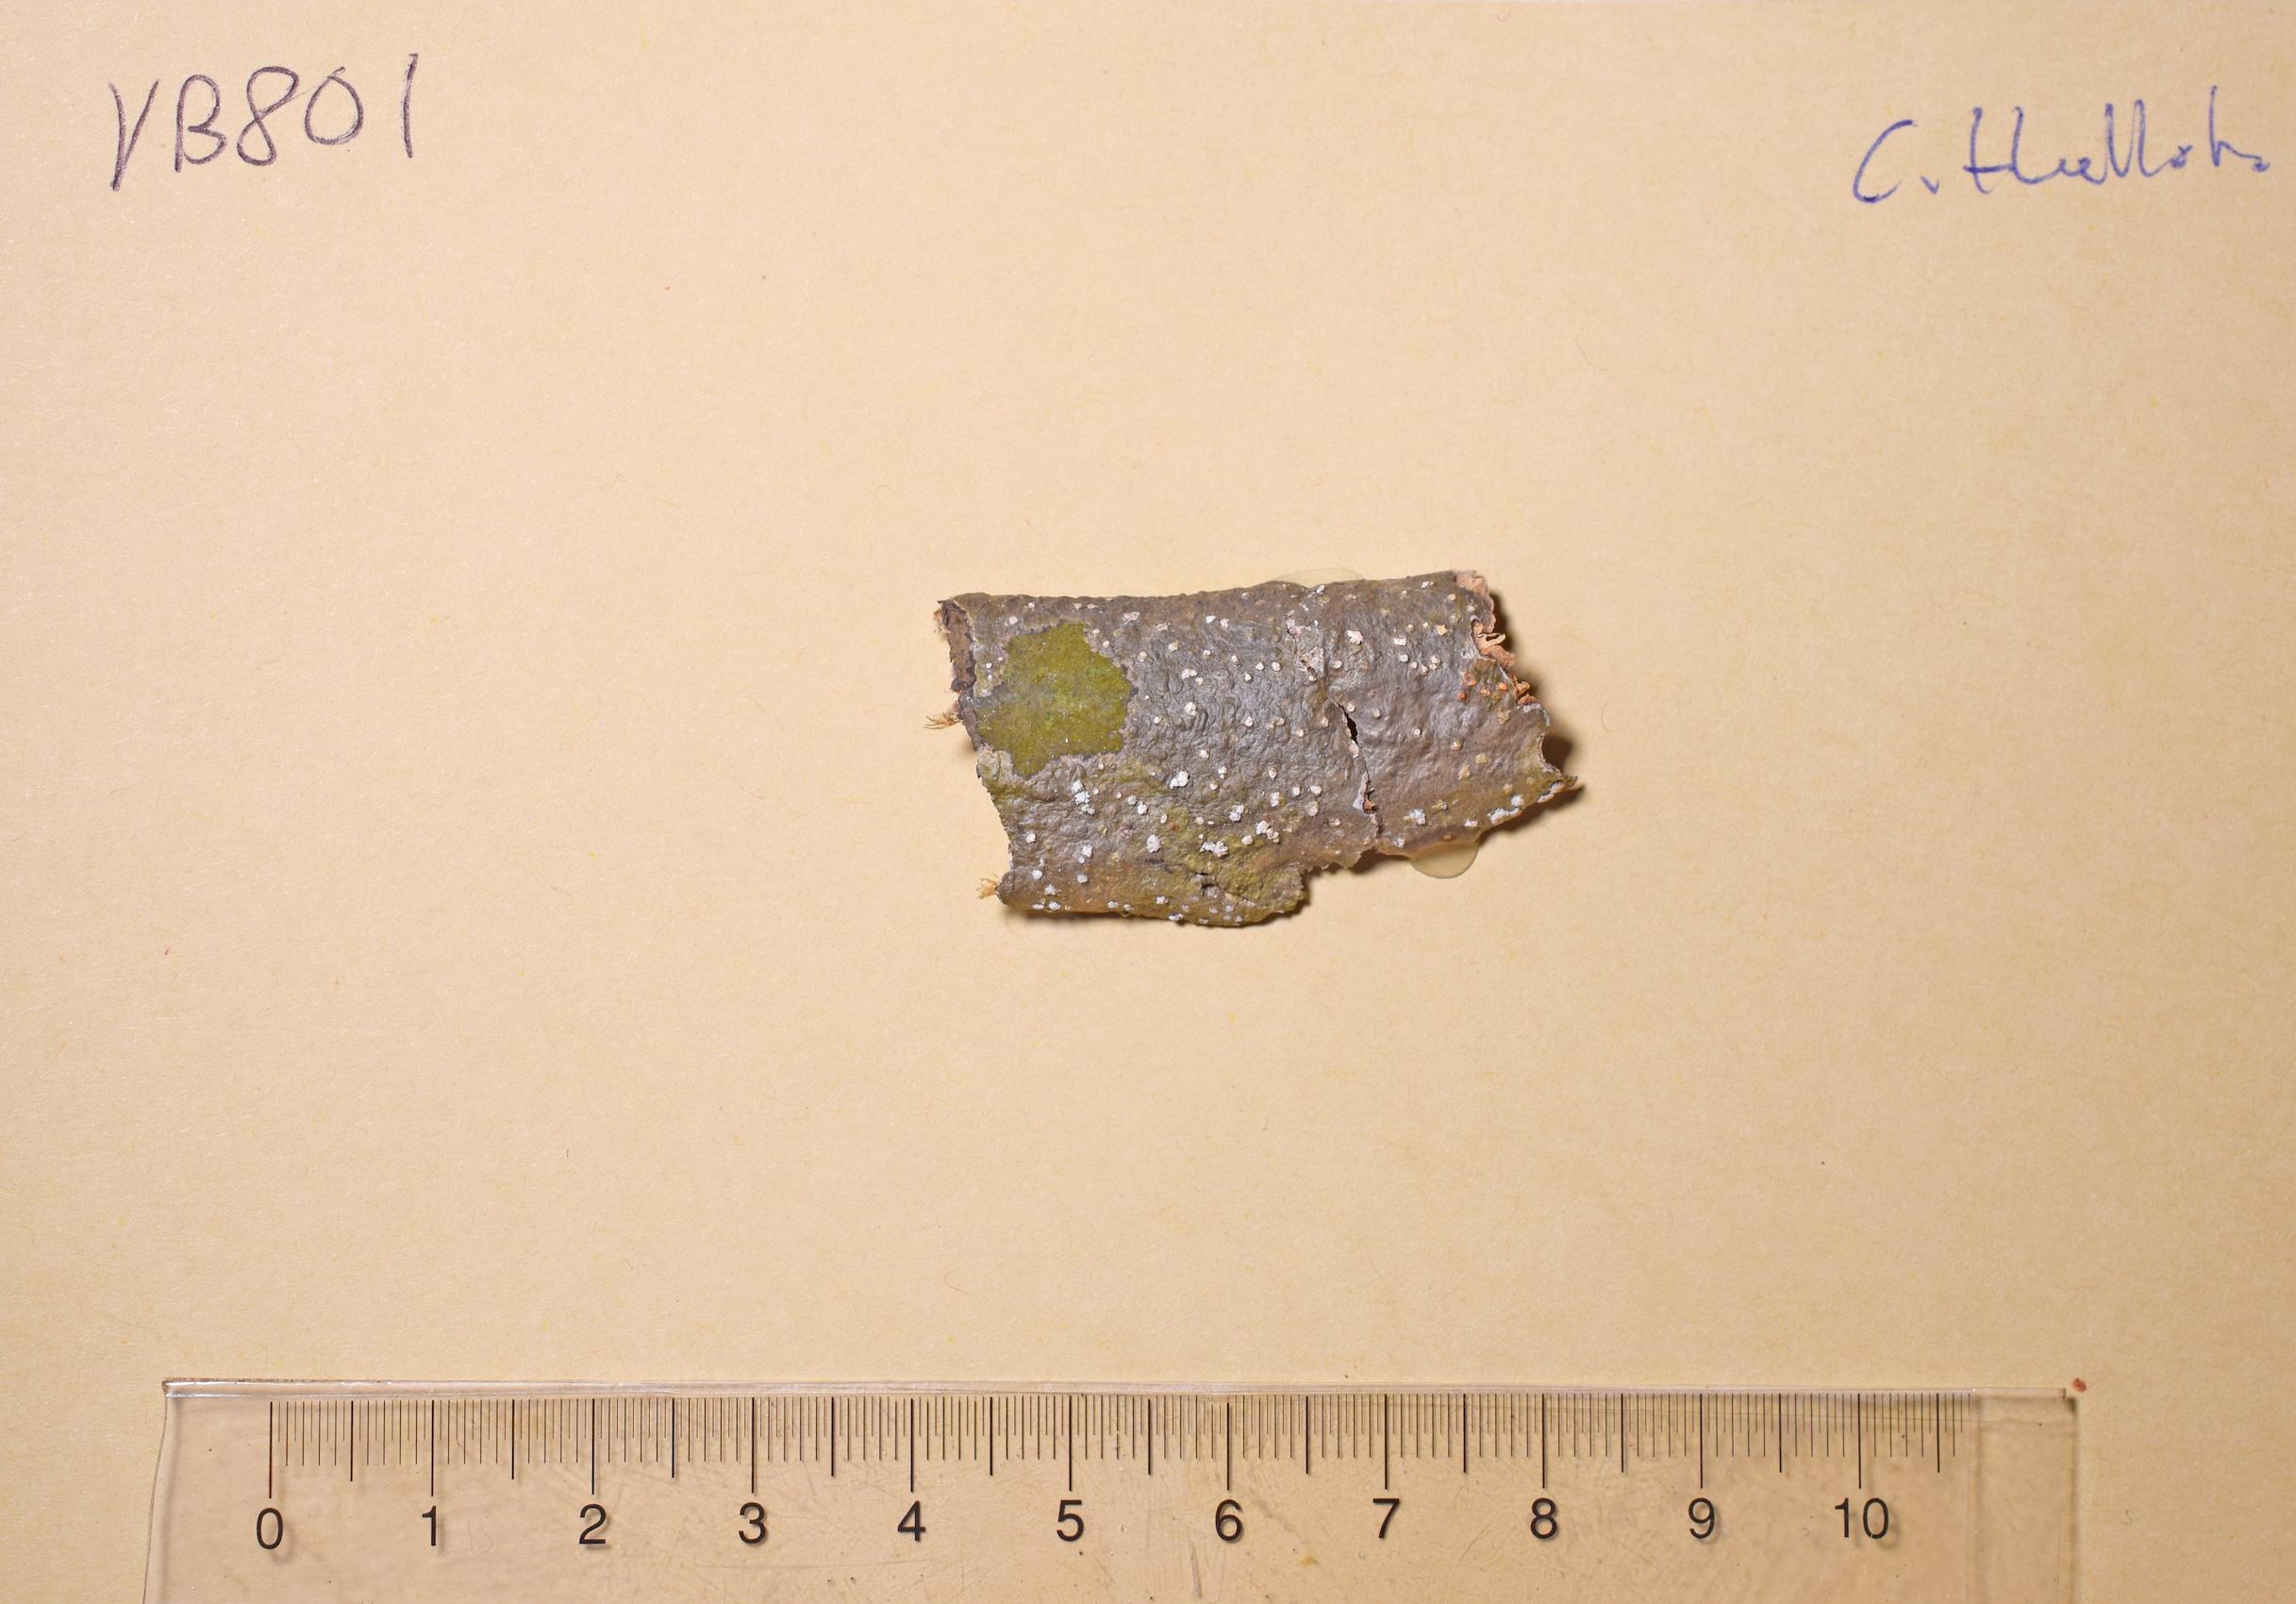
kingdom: Fungi
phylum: Ascomycota
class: Lecanoromycetes
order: Ostropales
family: Graphidaceae
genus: Ocellularia
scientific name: Ocellularia
